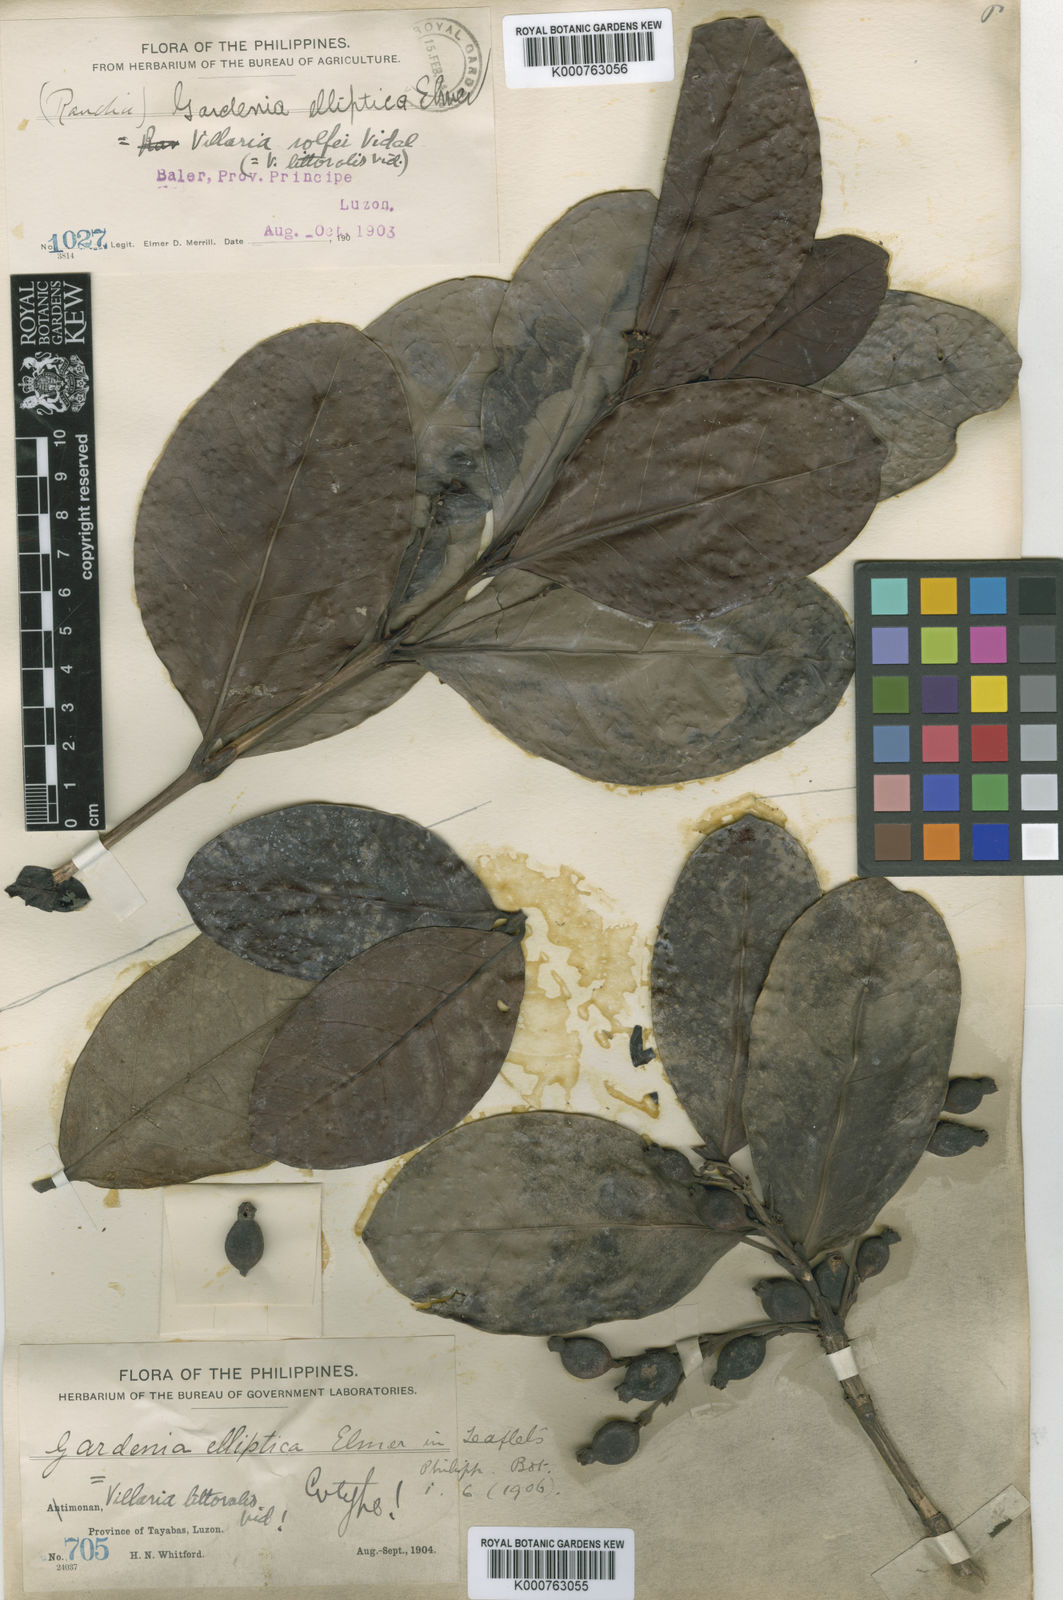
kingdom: Plantae
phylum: Tracheophyta
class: Magnoliopsida
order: Gentianales
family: Rubiaceae
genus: Villaria
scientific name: Villaria odorata
